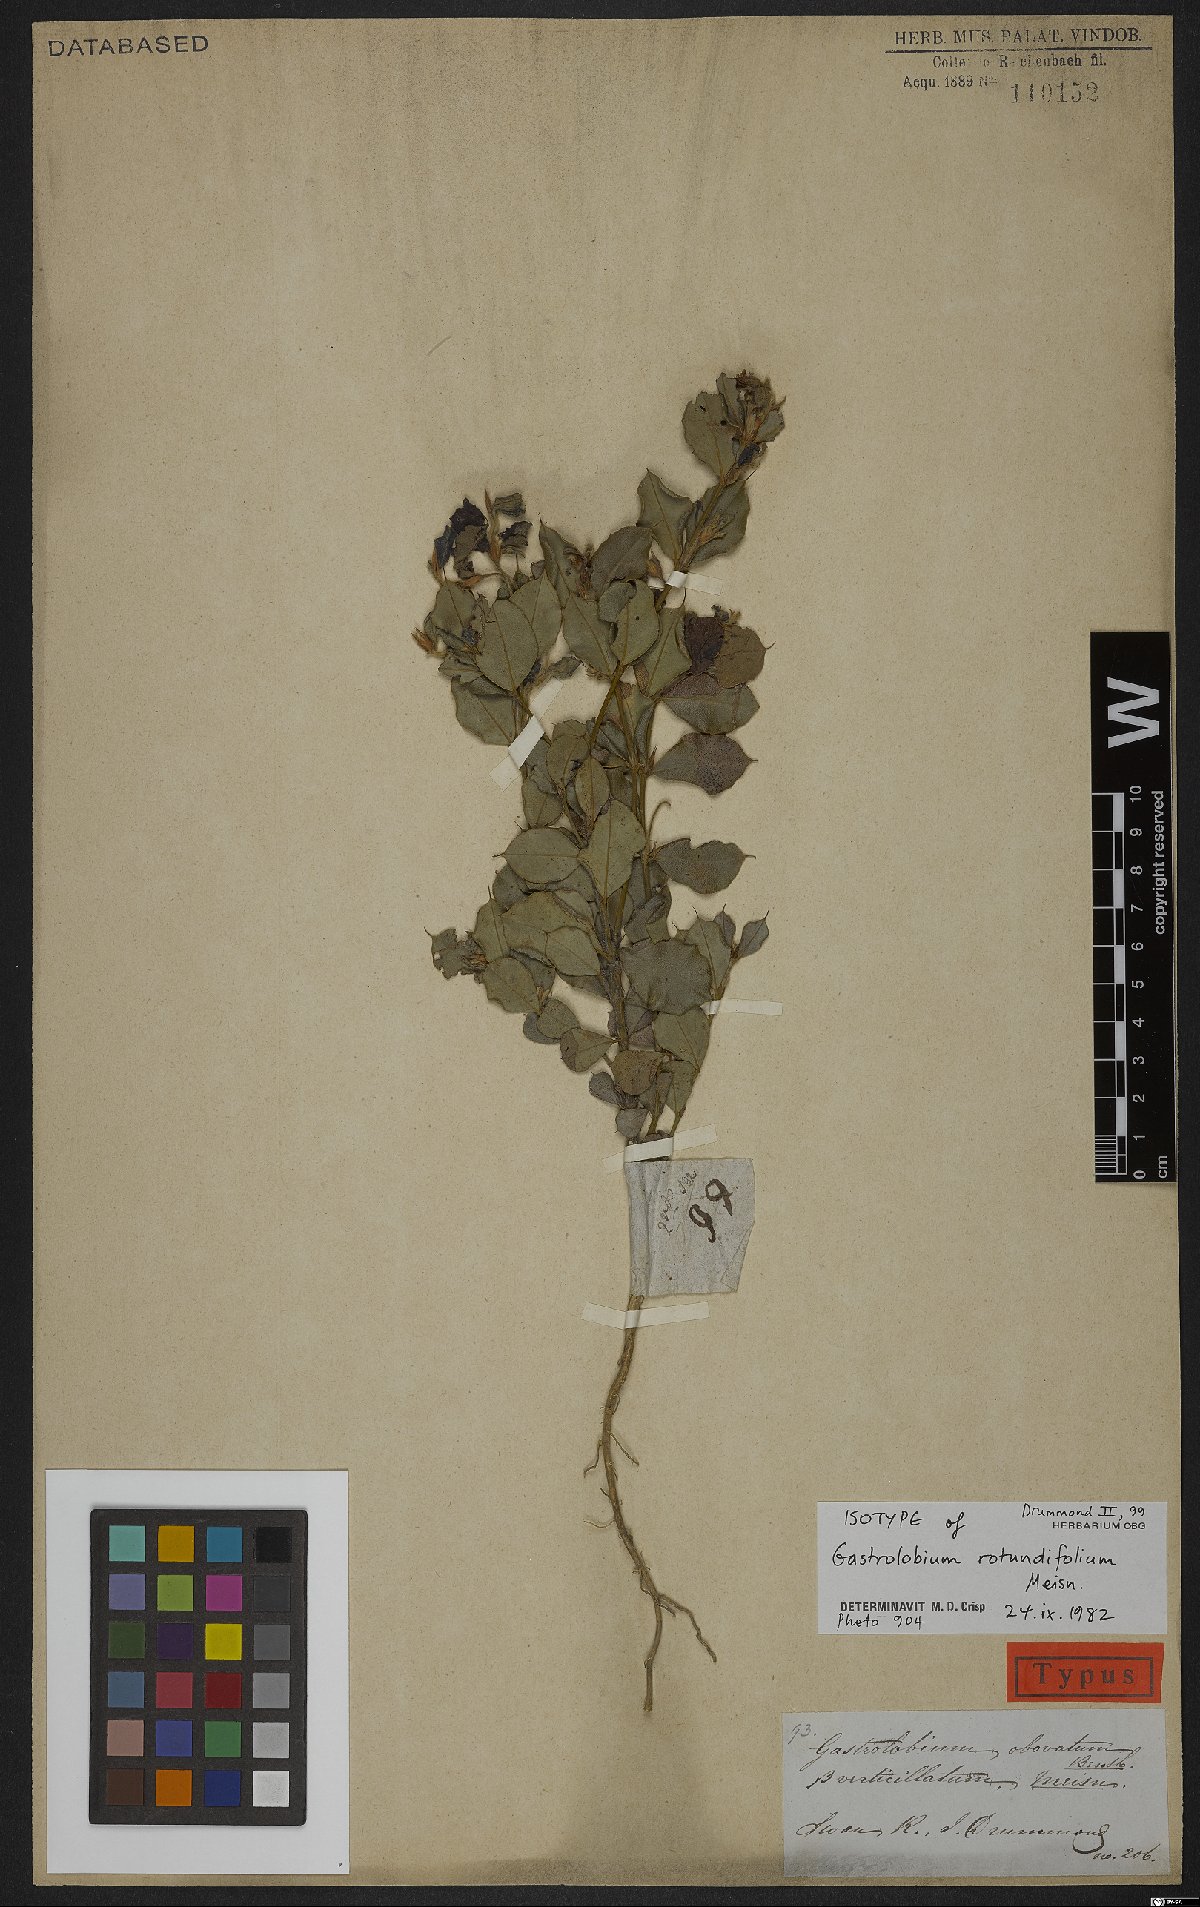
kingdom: Plantae
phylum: Tracheophyta
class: Magnoliopsida
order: Fabales
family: Fabaceae
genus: Gastrolobium
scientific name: Gastrolobium rotundifolium
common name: Gilbernine poison
